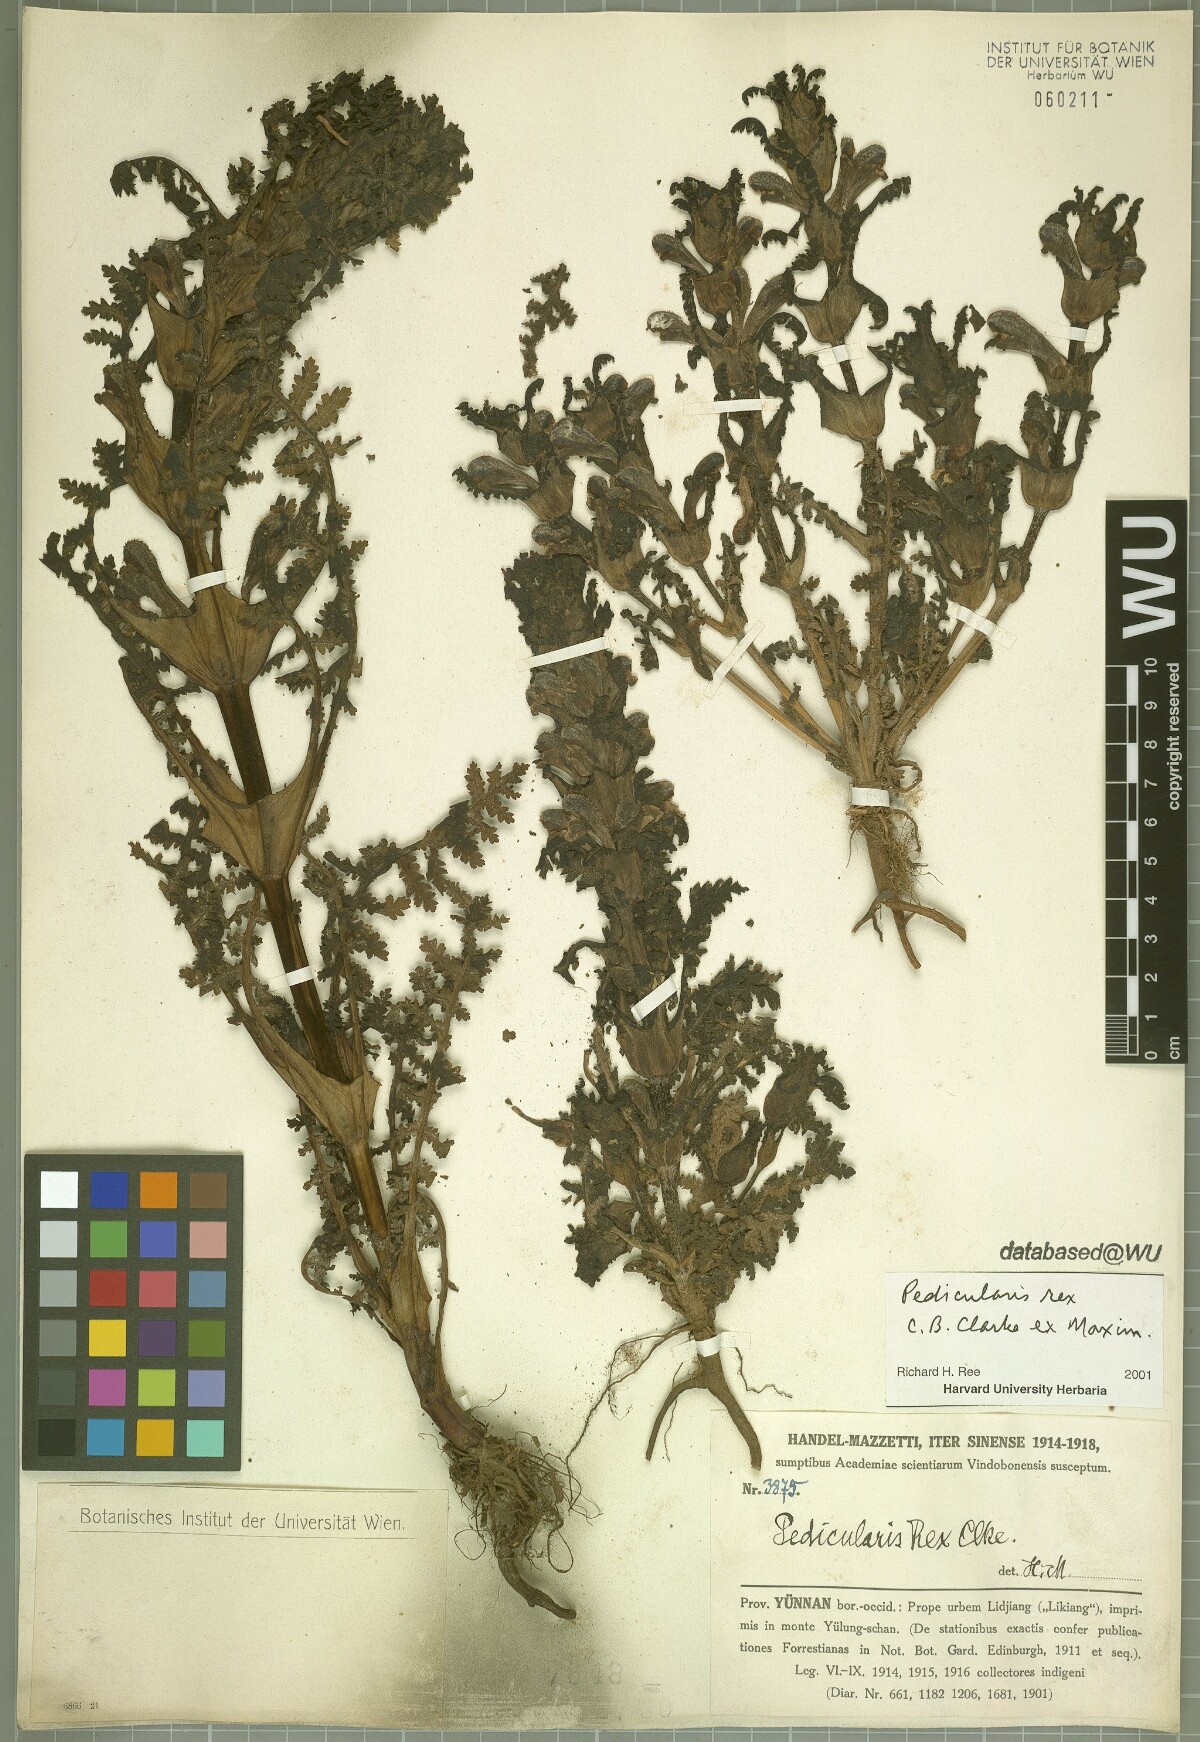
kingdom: Plantae
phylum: Tracheophyta
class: Magnoliopsida
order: Lamiales
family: Orobanchaceae
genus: Pedicularis
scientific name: Pedicularis rex
